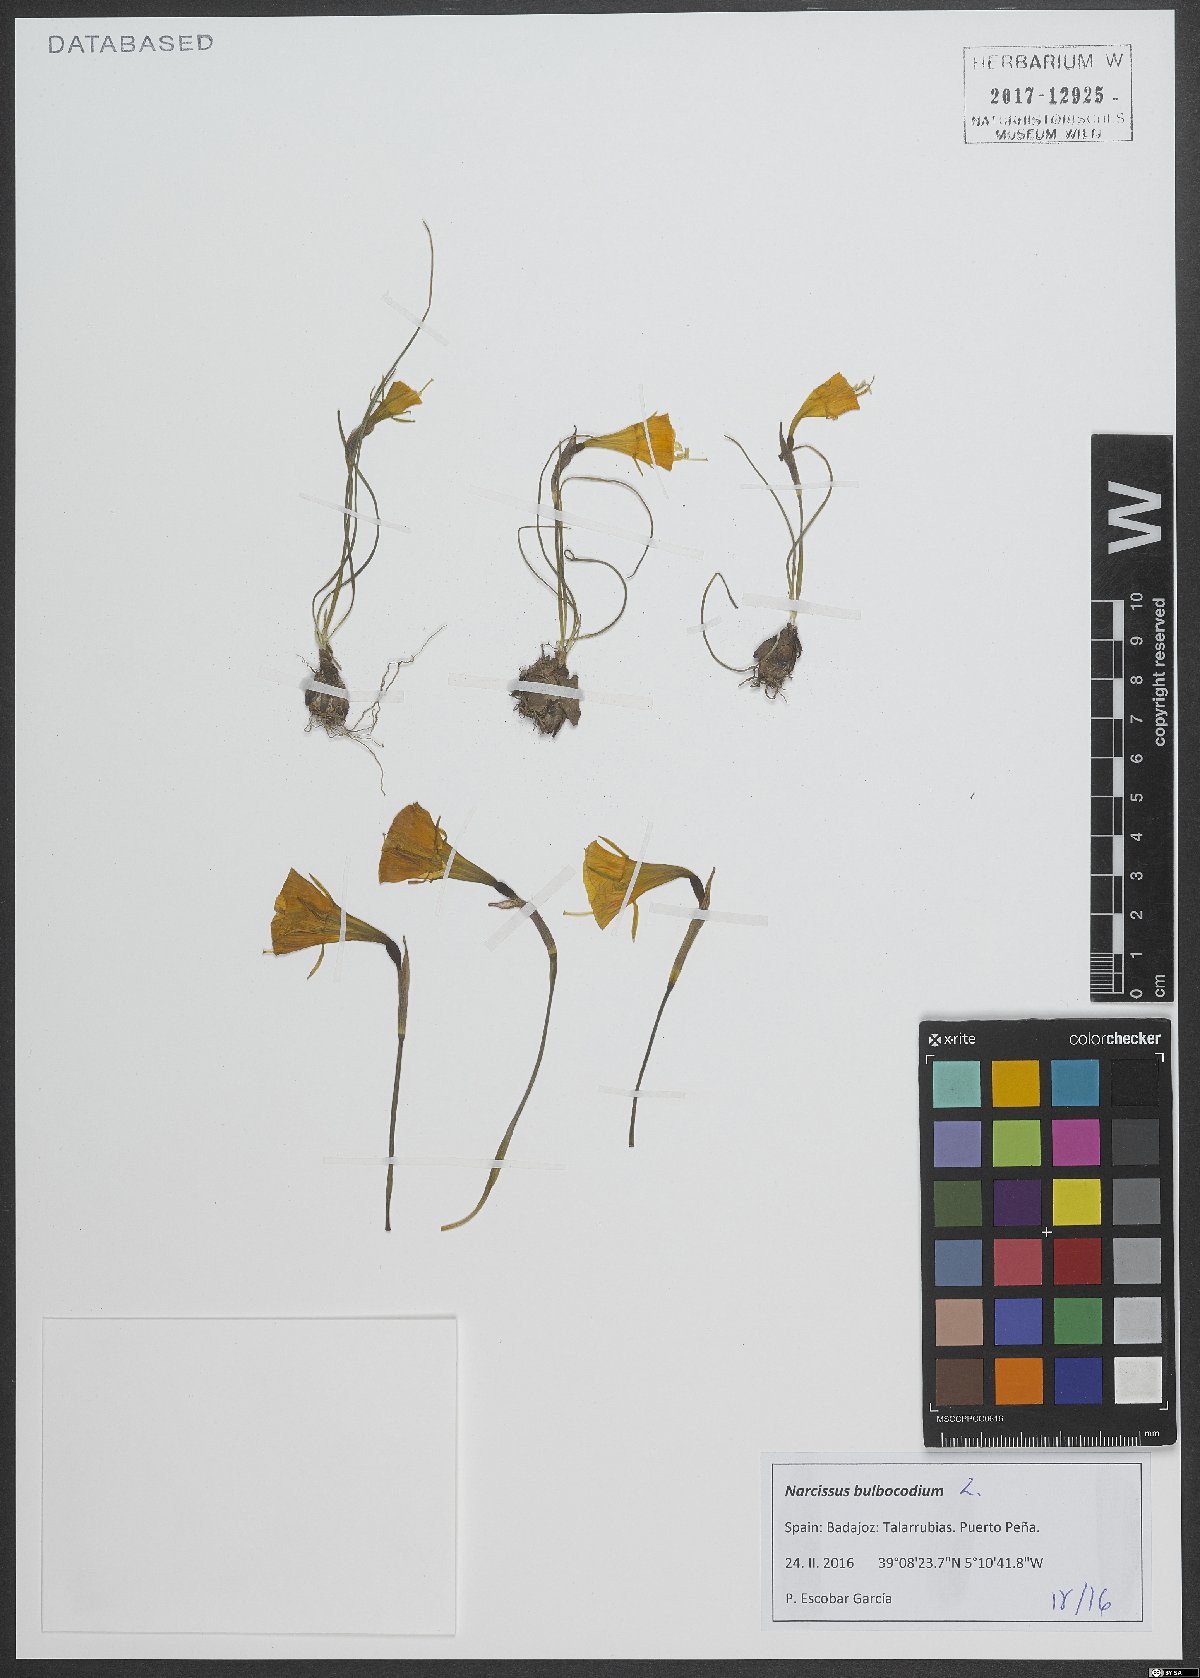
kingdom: Plantae
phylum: Tracheophyta
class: Liliopsida
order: Asparagales
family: Amaryllidaceae
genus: Narcissus
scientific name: Narcissus bulbocodium
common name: Hoop-petticoat daffodil
